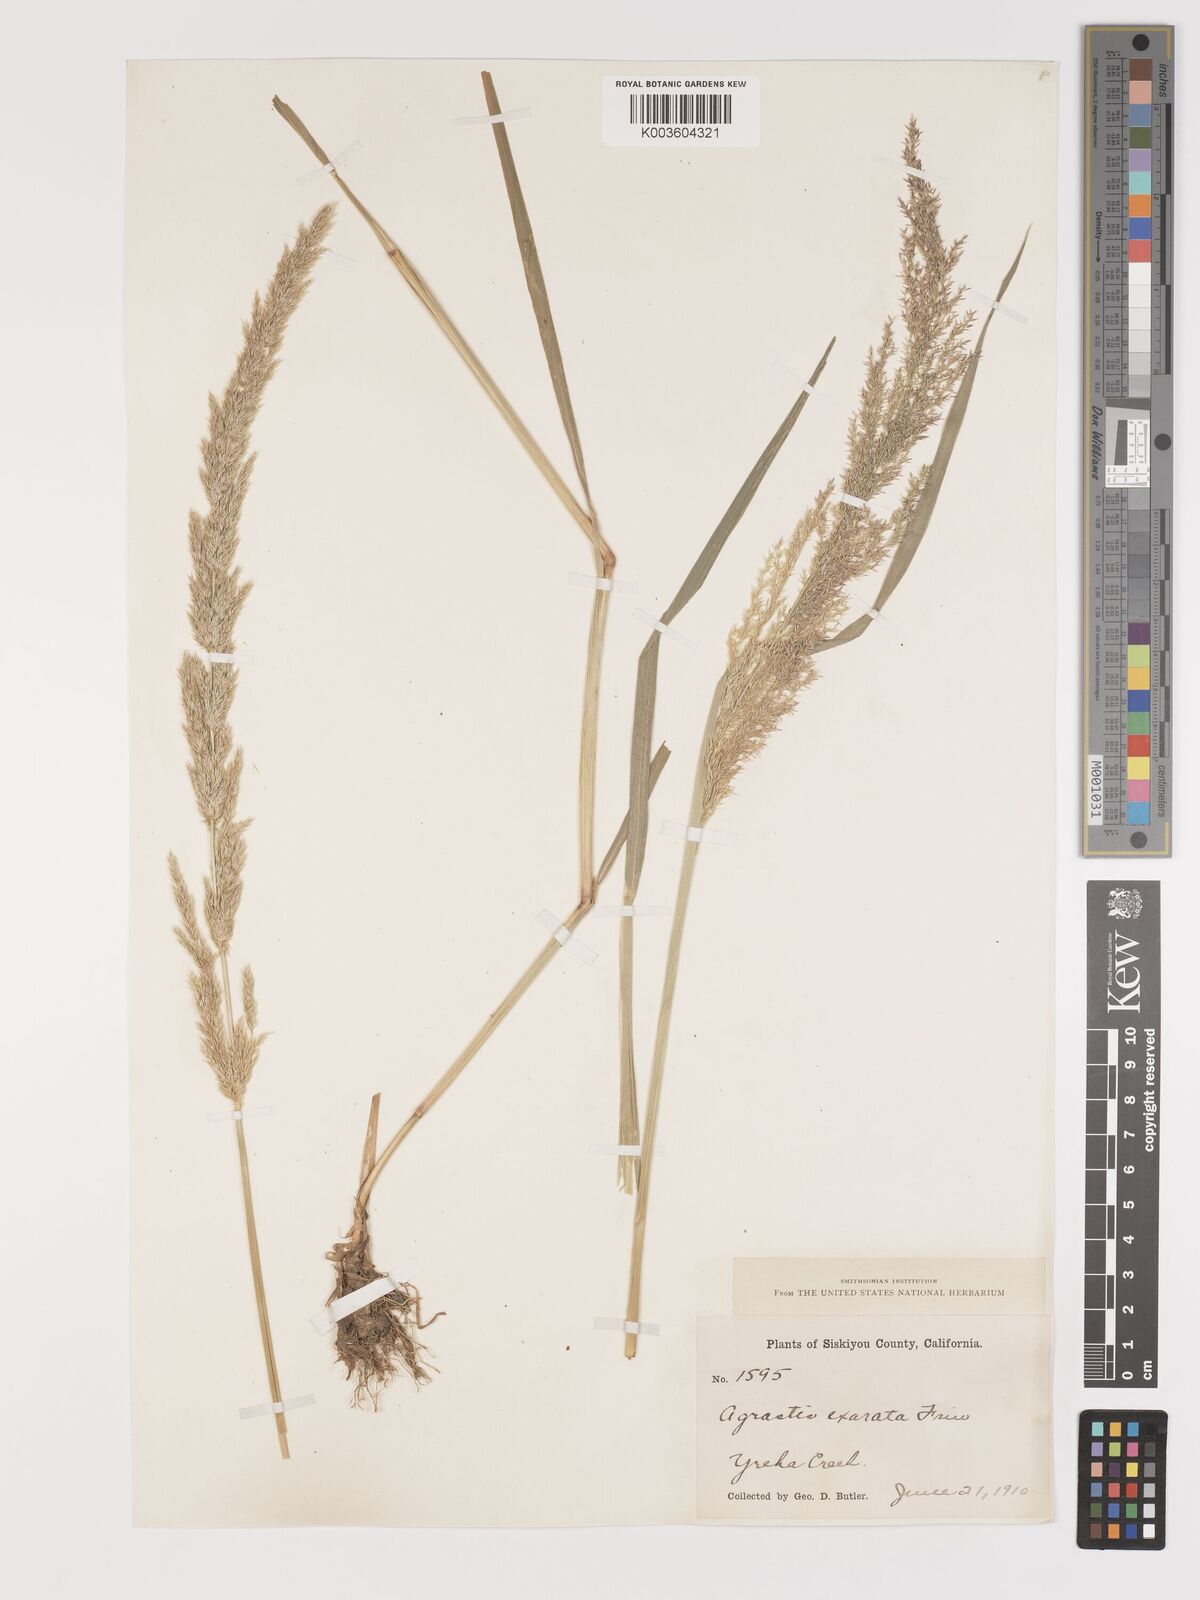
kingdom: Plantae
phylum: Tracheophyta
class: Liliopsida
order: Poales
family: Poaceae
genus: Agrostis
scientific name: Agrostis exarata
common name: Spike bent
